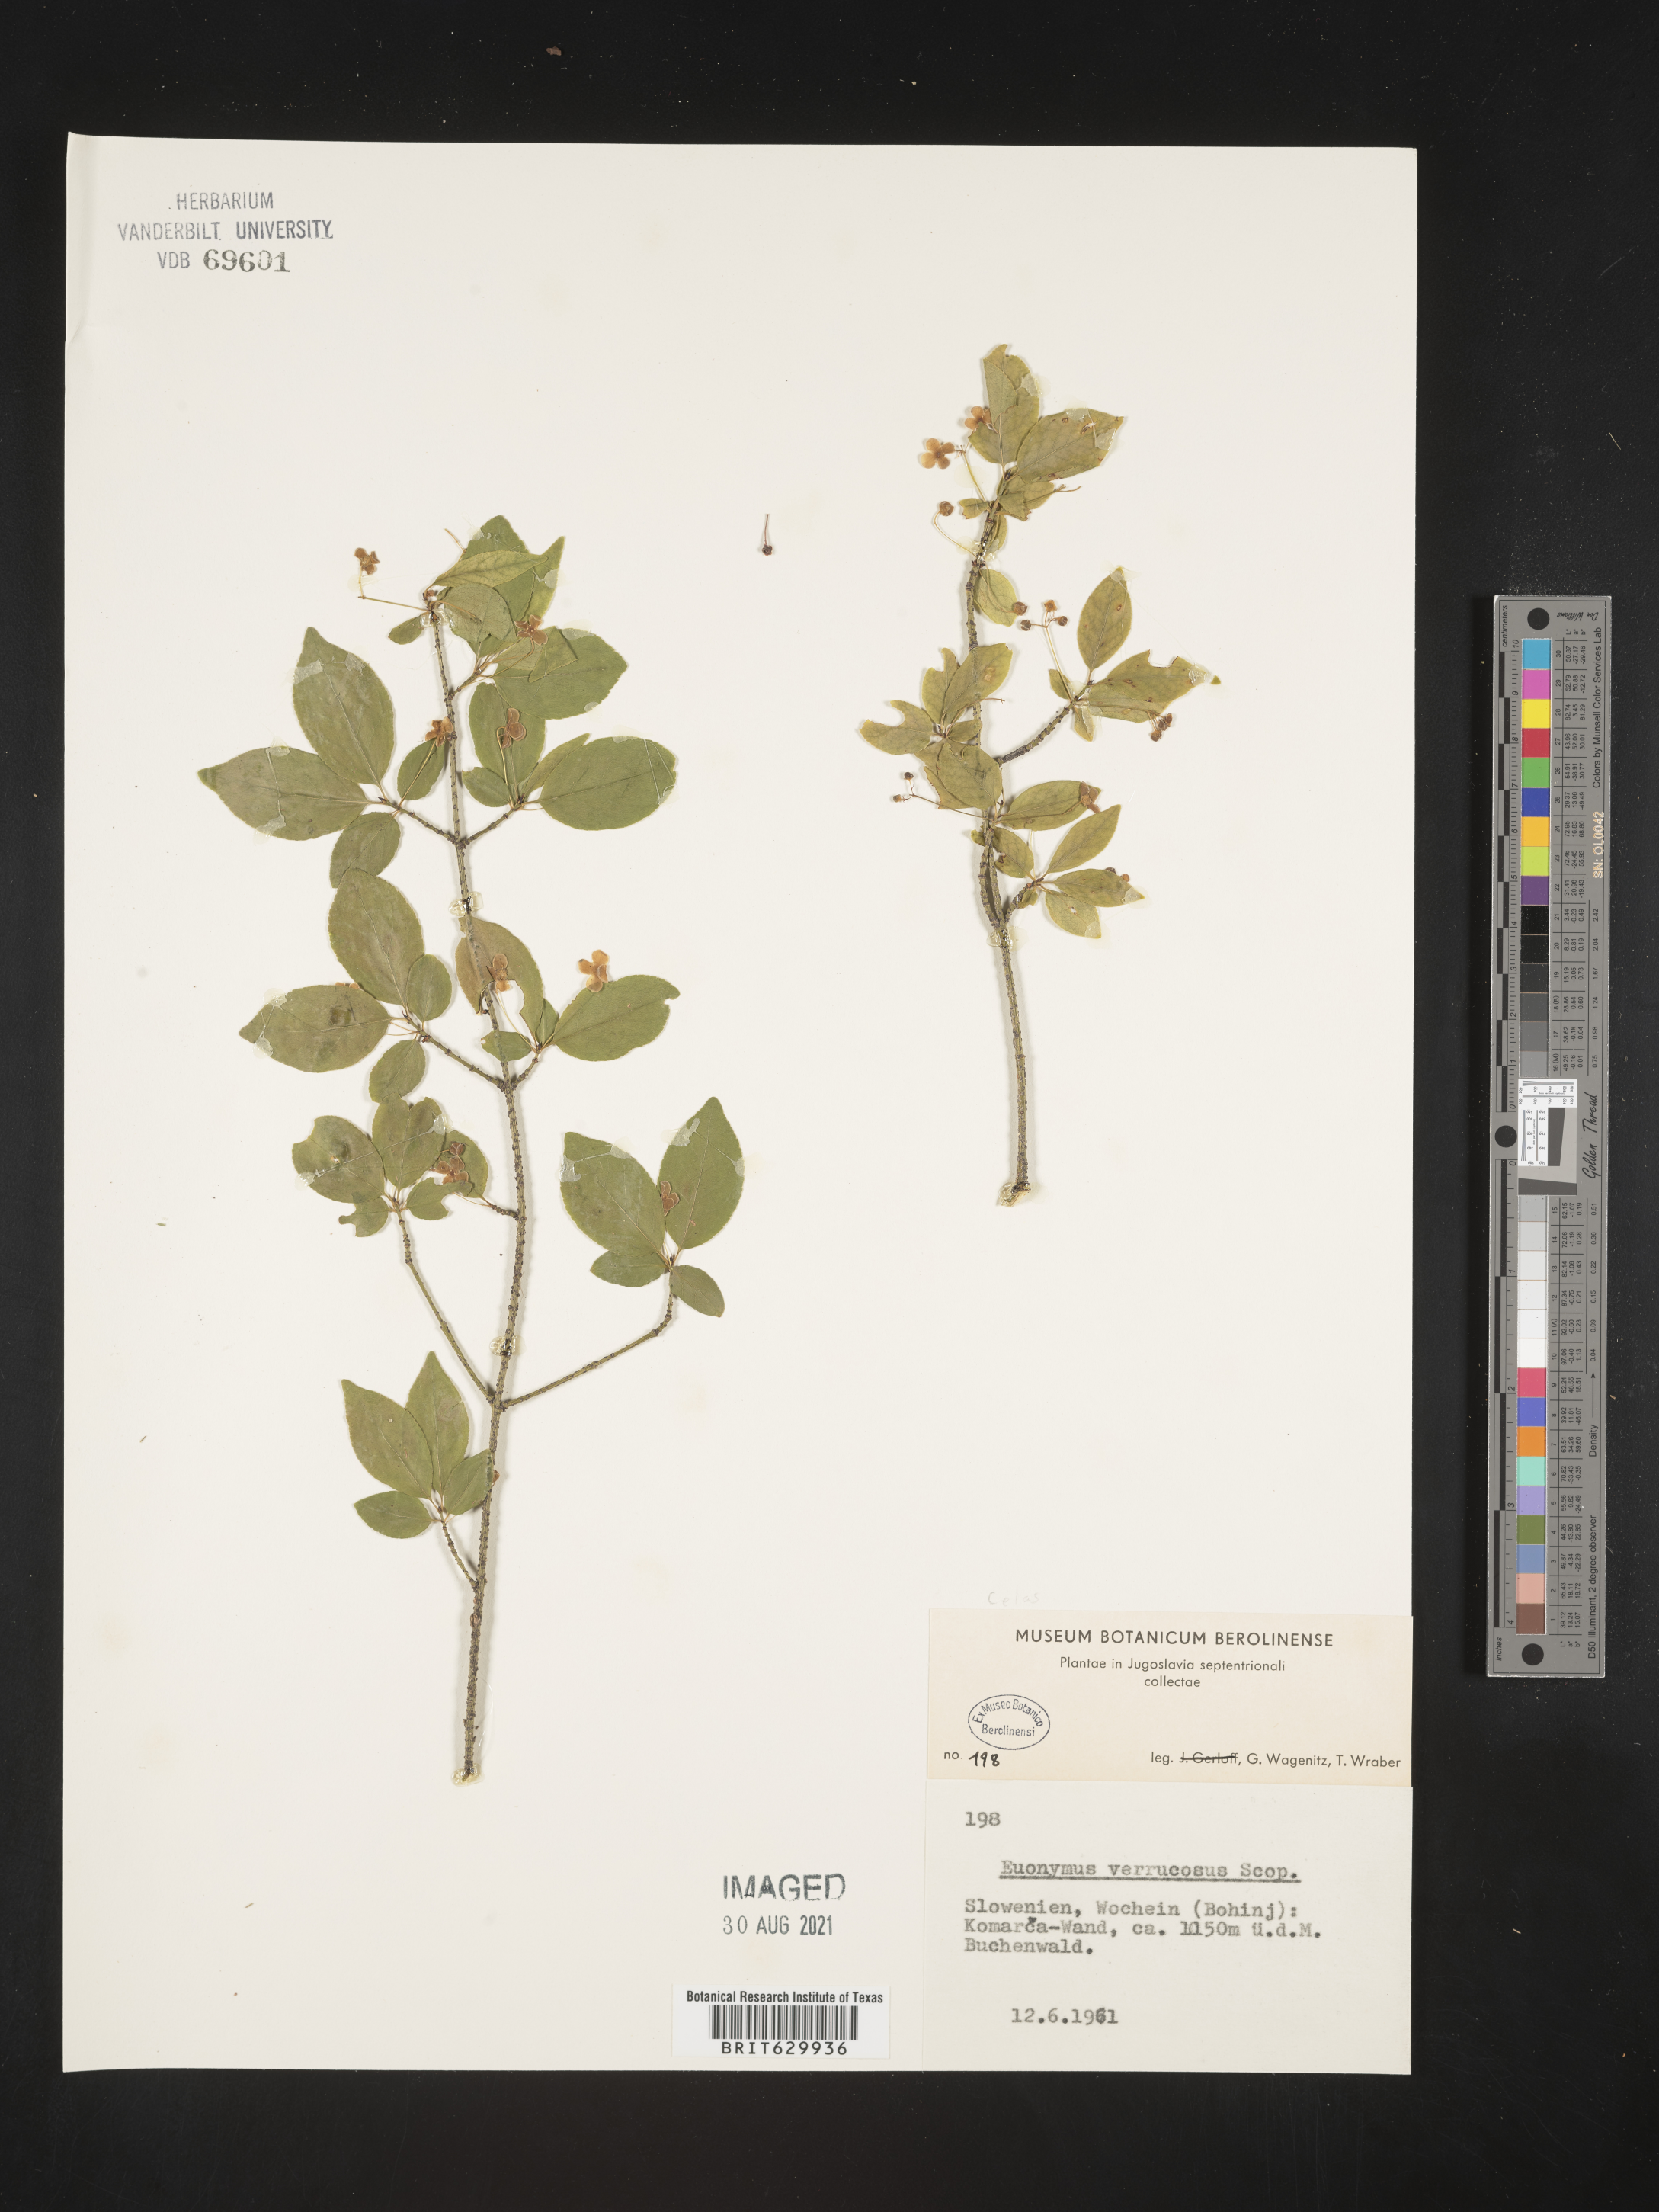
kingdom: Plantae
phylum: Tracheophyta
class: Magnoliopsida
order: Celastrales
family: Celastraceae
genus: Euonymus
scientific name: Euonymus verrucosus
